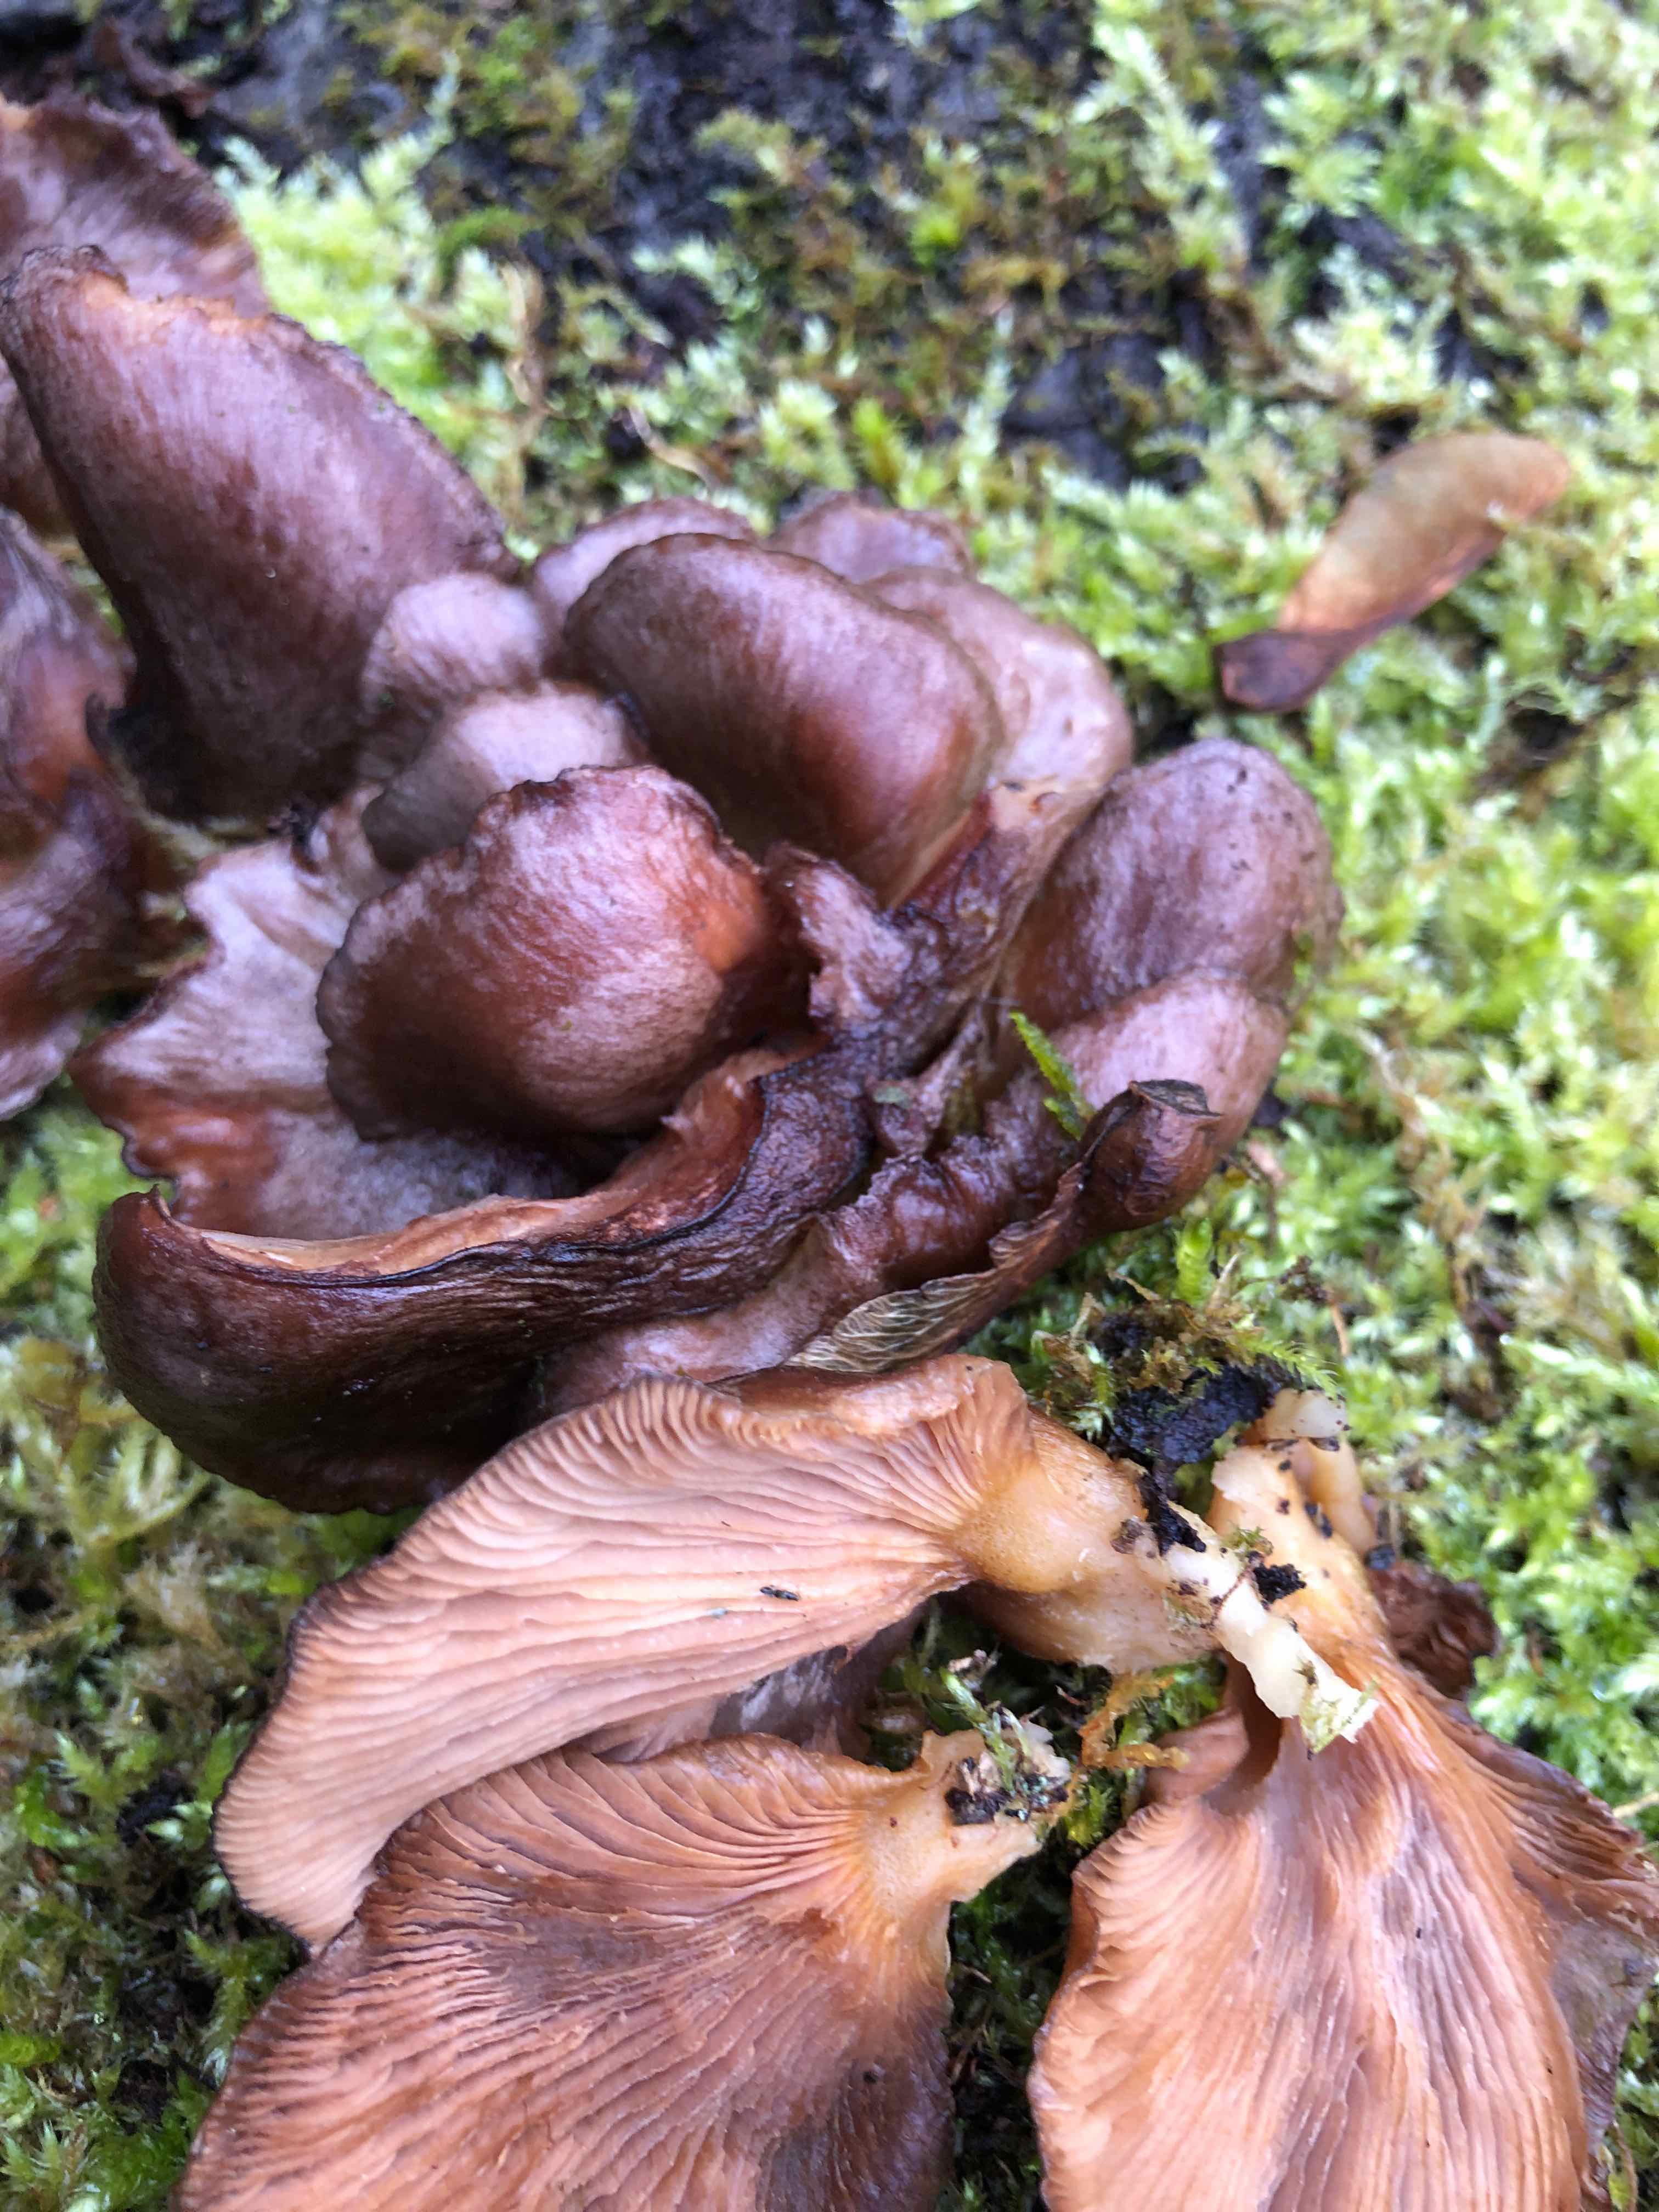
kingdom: Fungi
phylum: Basidiomycota
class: Agaricomycetes
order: Agaricales
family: Sarcomyxaceae
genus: Sarcomyxa
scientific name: Sarcomyxa serotina
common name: gummihat
